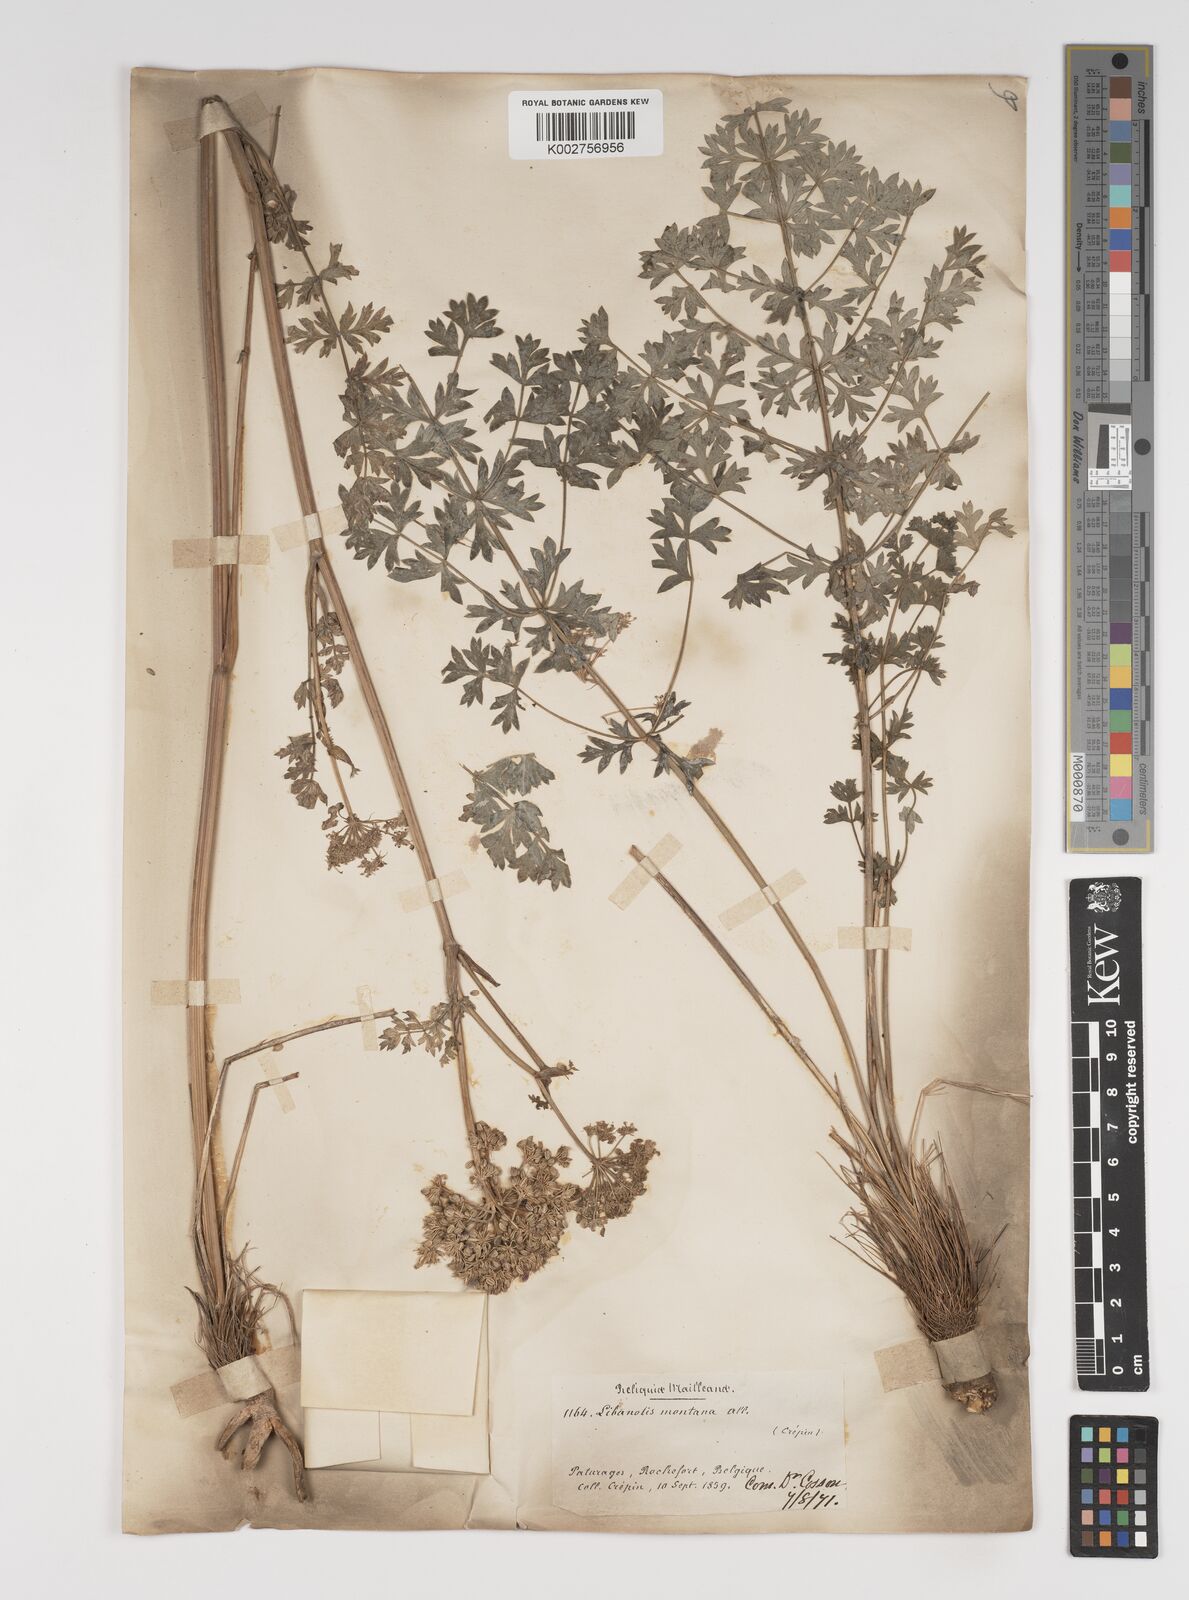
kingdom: Plantae
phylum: Tracheophyta
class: Magnoliopsida
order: Apiales
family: Apiaceae
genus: Seseli
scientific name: Seseli libanotis
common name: Mooncarrot
